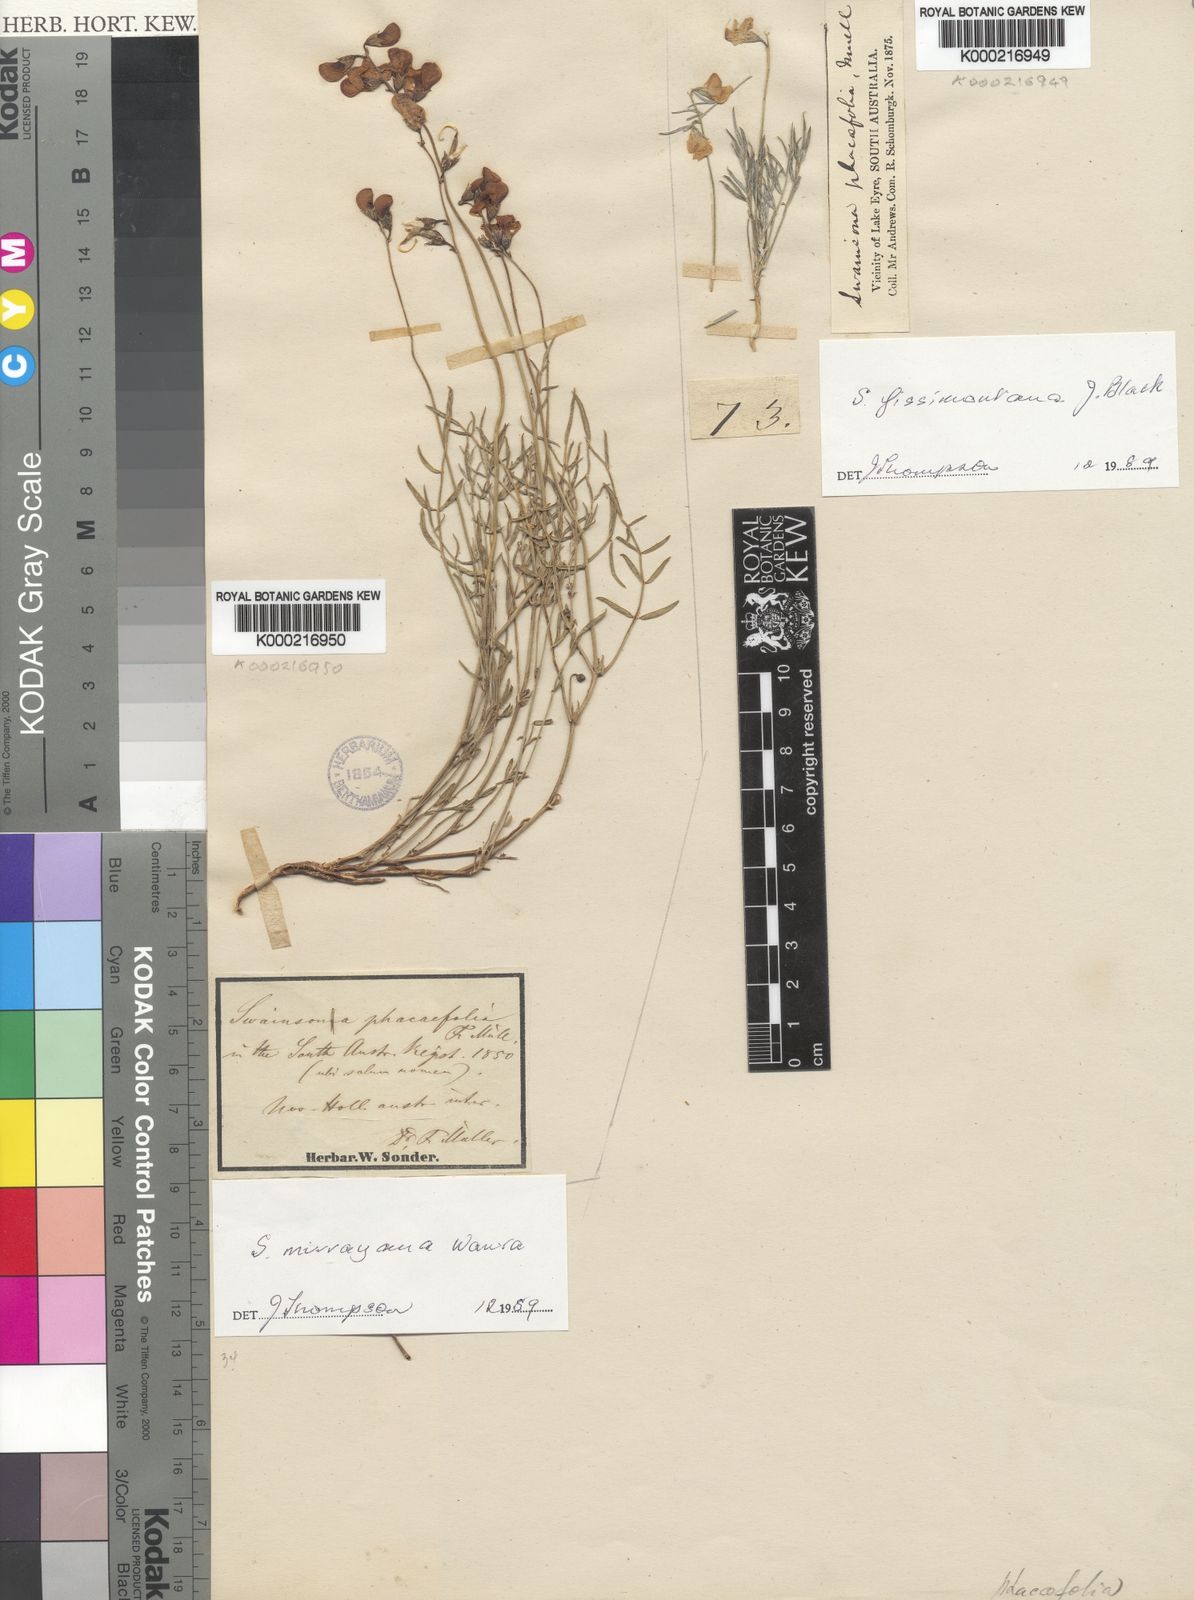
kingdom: Plantae
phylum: Tracheophyta
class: Magnoliopsida
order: Fabales
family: Fabaceae
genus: Swainsona
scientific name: Swainsona fissimontana
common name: Broken hill-pea
